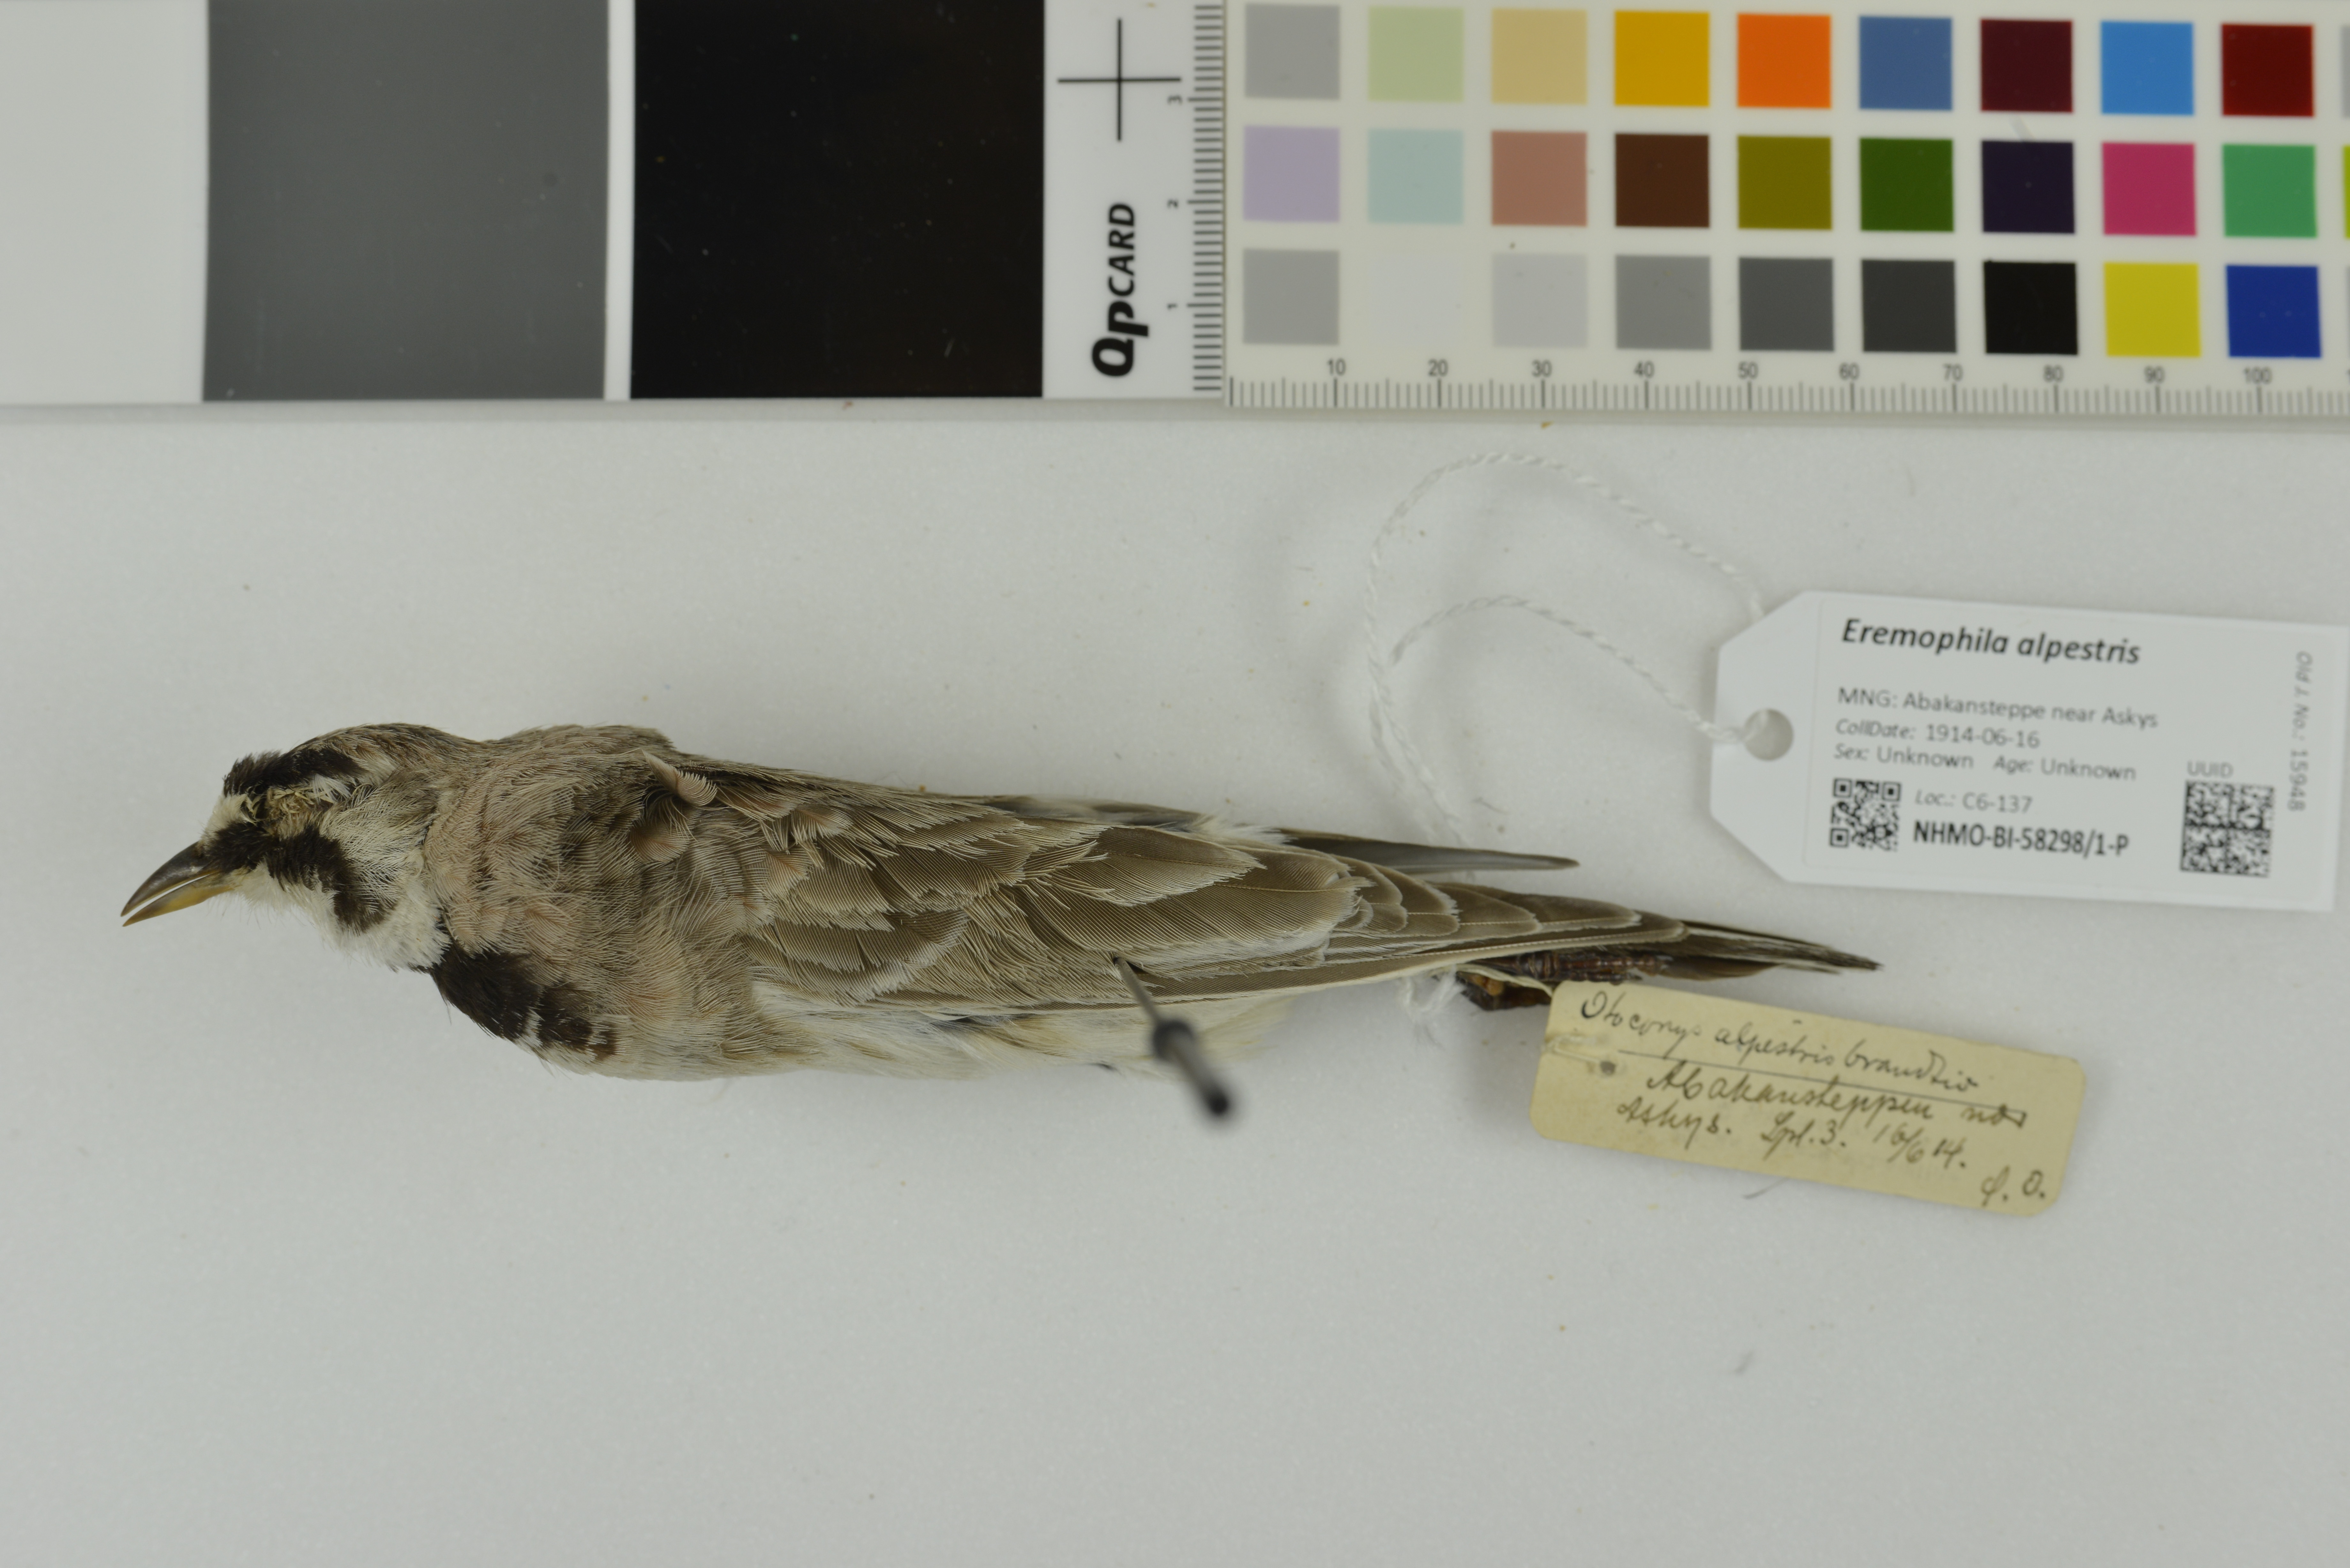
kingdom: Animalia
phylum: Chordata
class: Aves
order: Passeriformes
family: Alaudidae
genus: Eremophila
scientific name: Eremophila alpestris
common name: Horned lark
